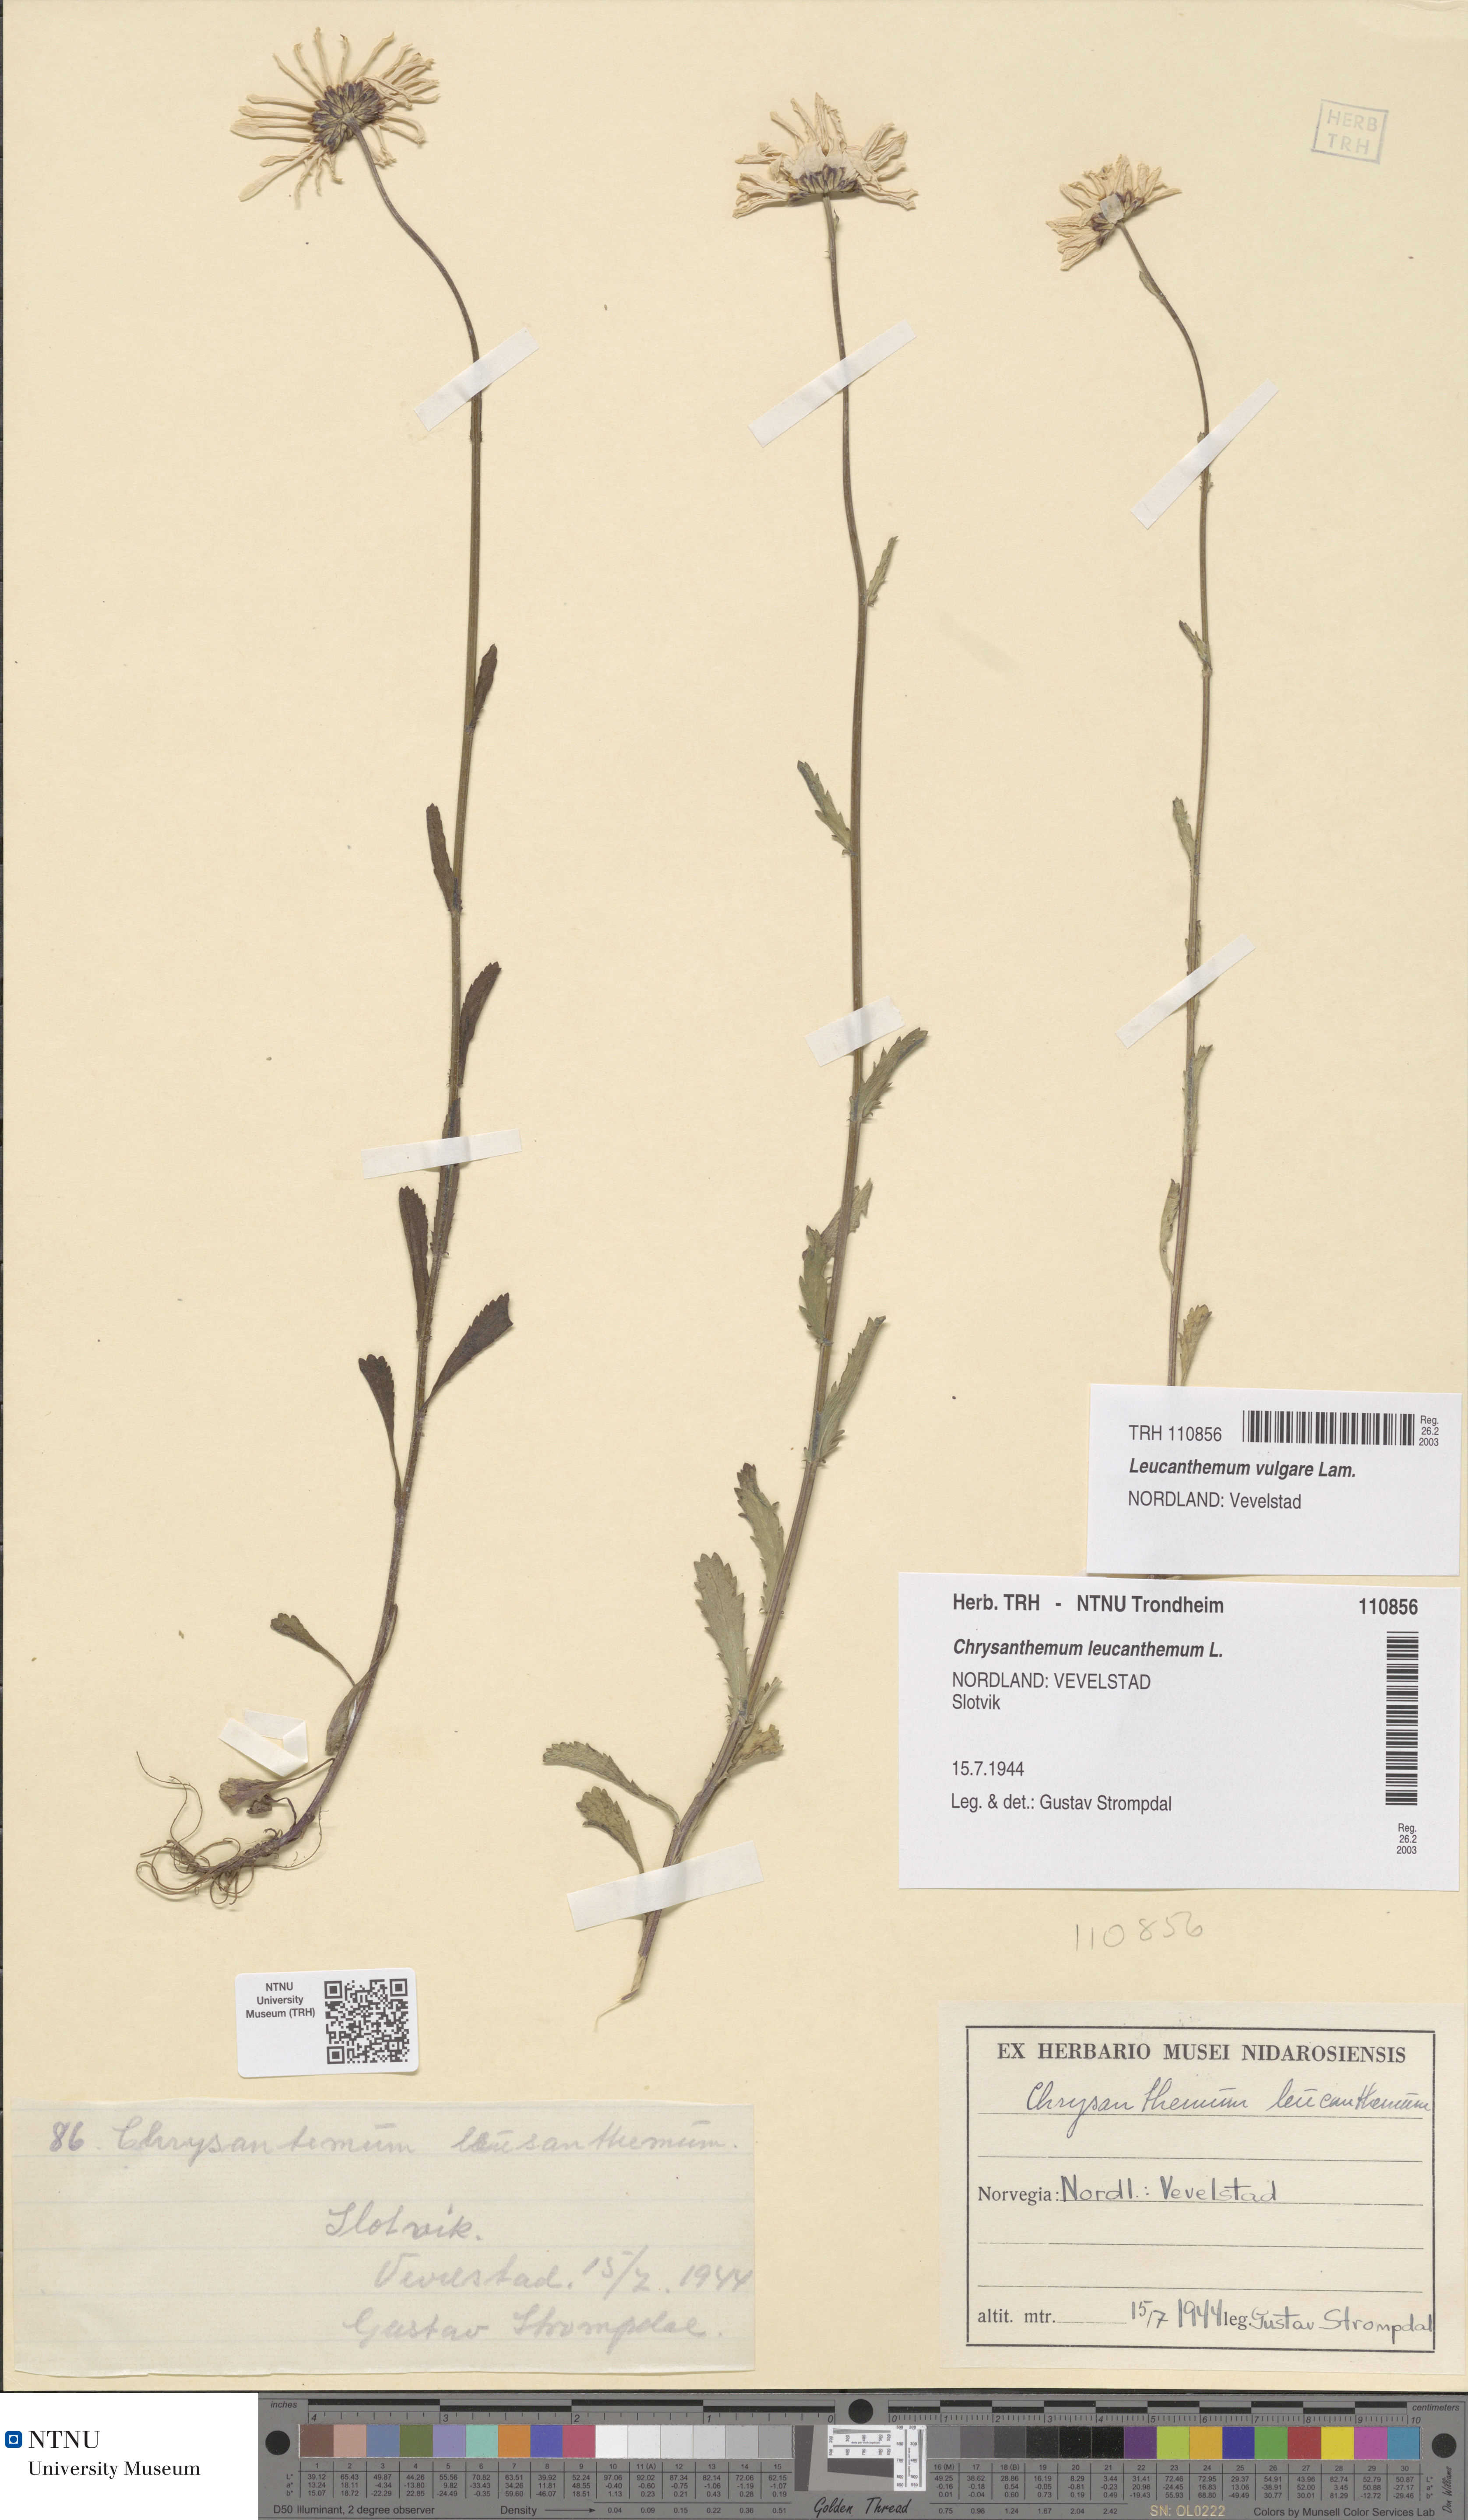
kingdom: Plantae
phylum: Tracheophyta
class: Magnoliopsida
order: Asterales
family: Asteraceae
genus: Leucanthemum
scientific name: Leucanthemum vulgare
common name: Oxeye daisy
